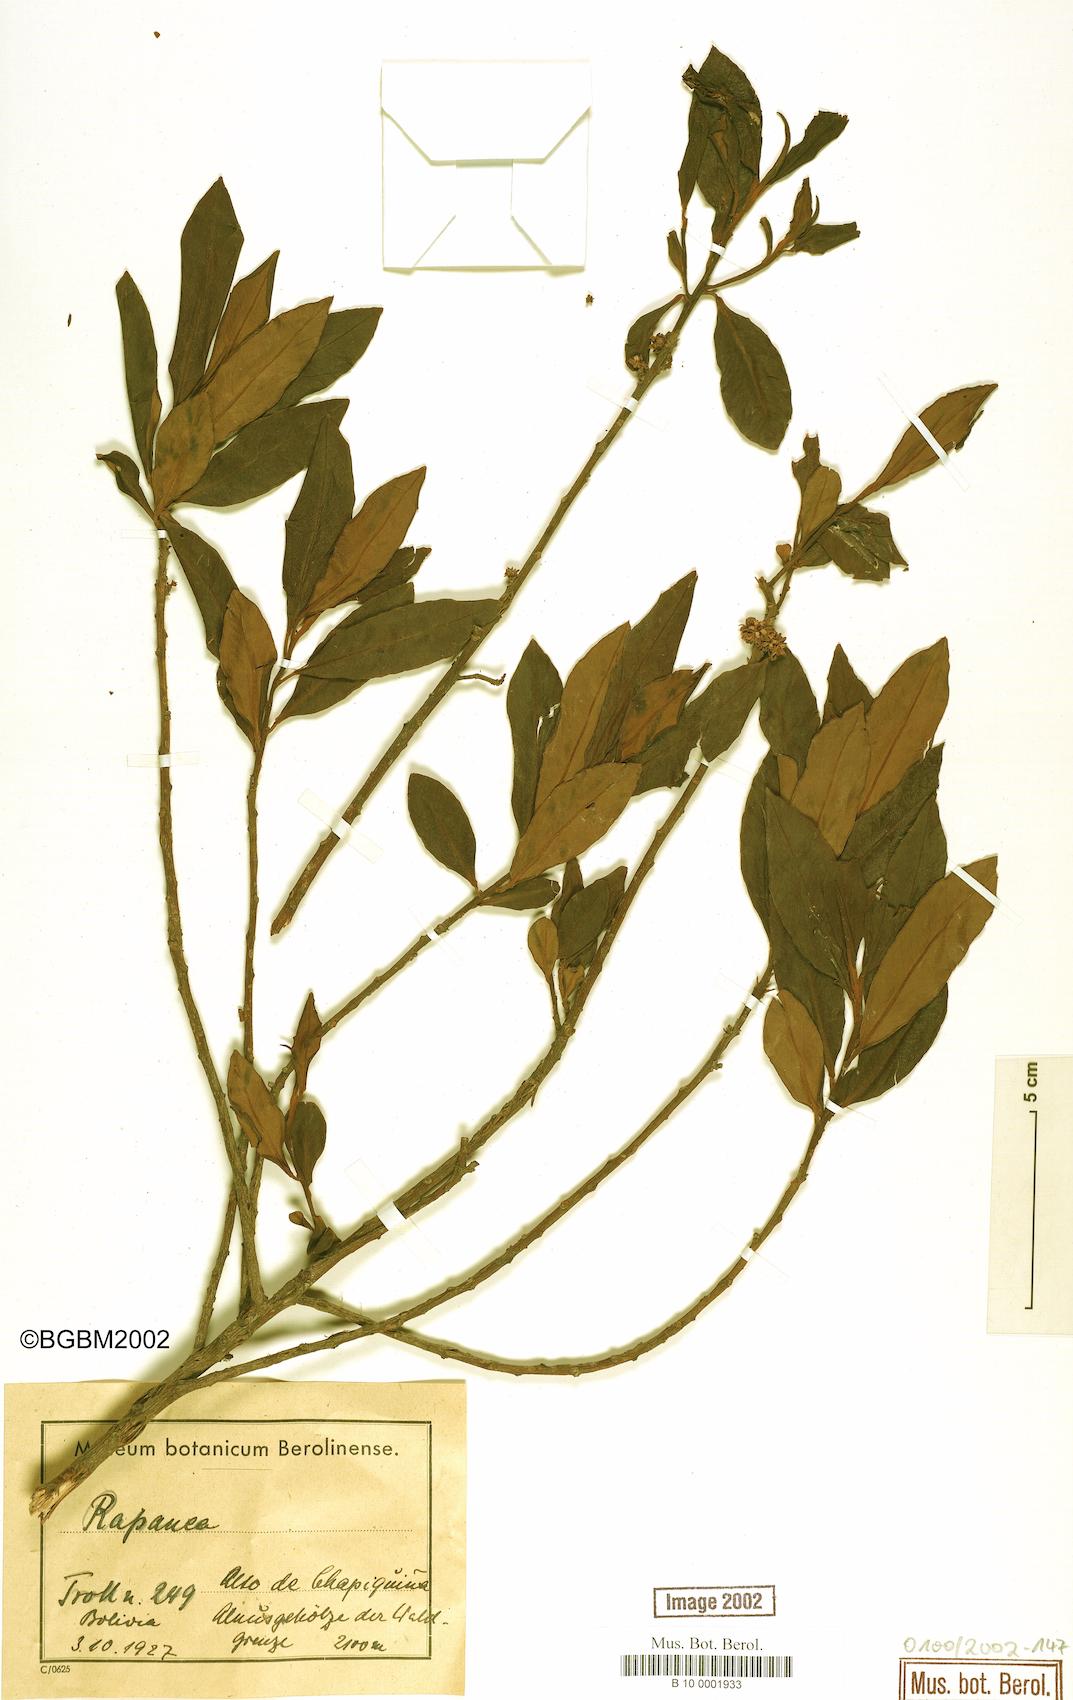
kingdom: Plantae
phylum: Tracheophyta
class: Magnoliopsida
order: Ericales
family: Primulaceae
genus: Myrsine
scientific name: Myrsine
